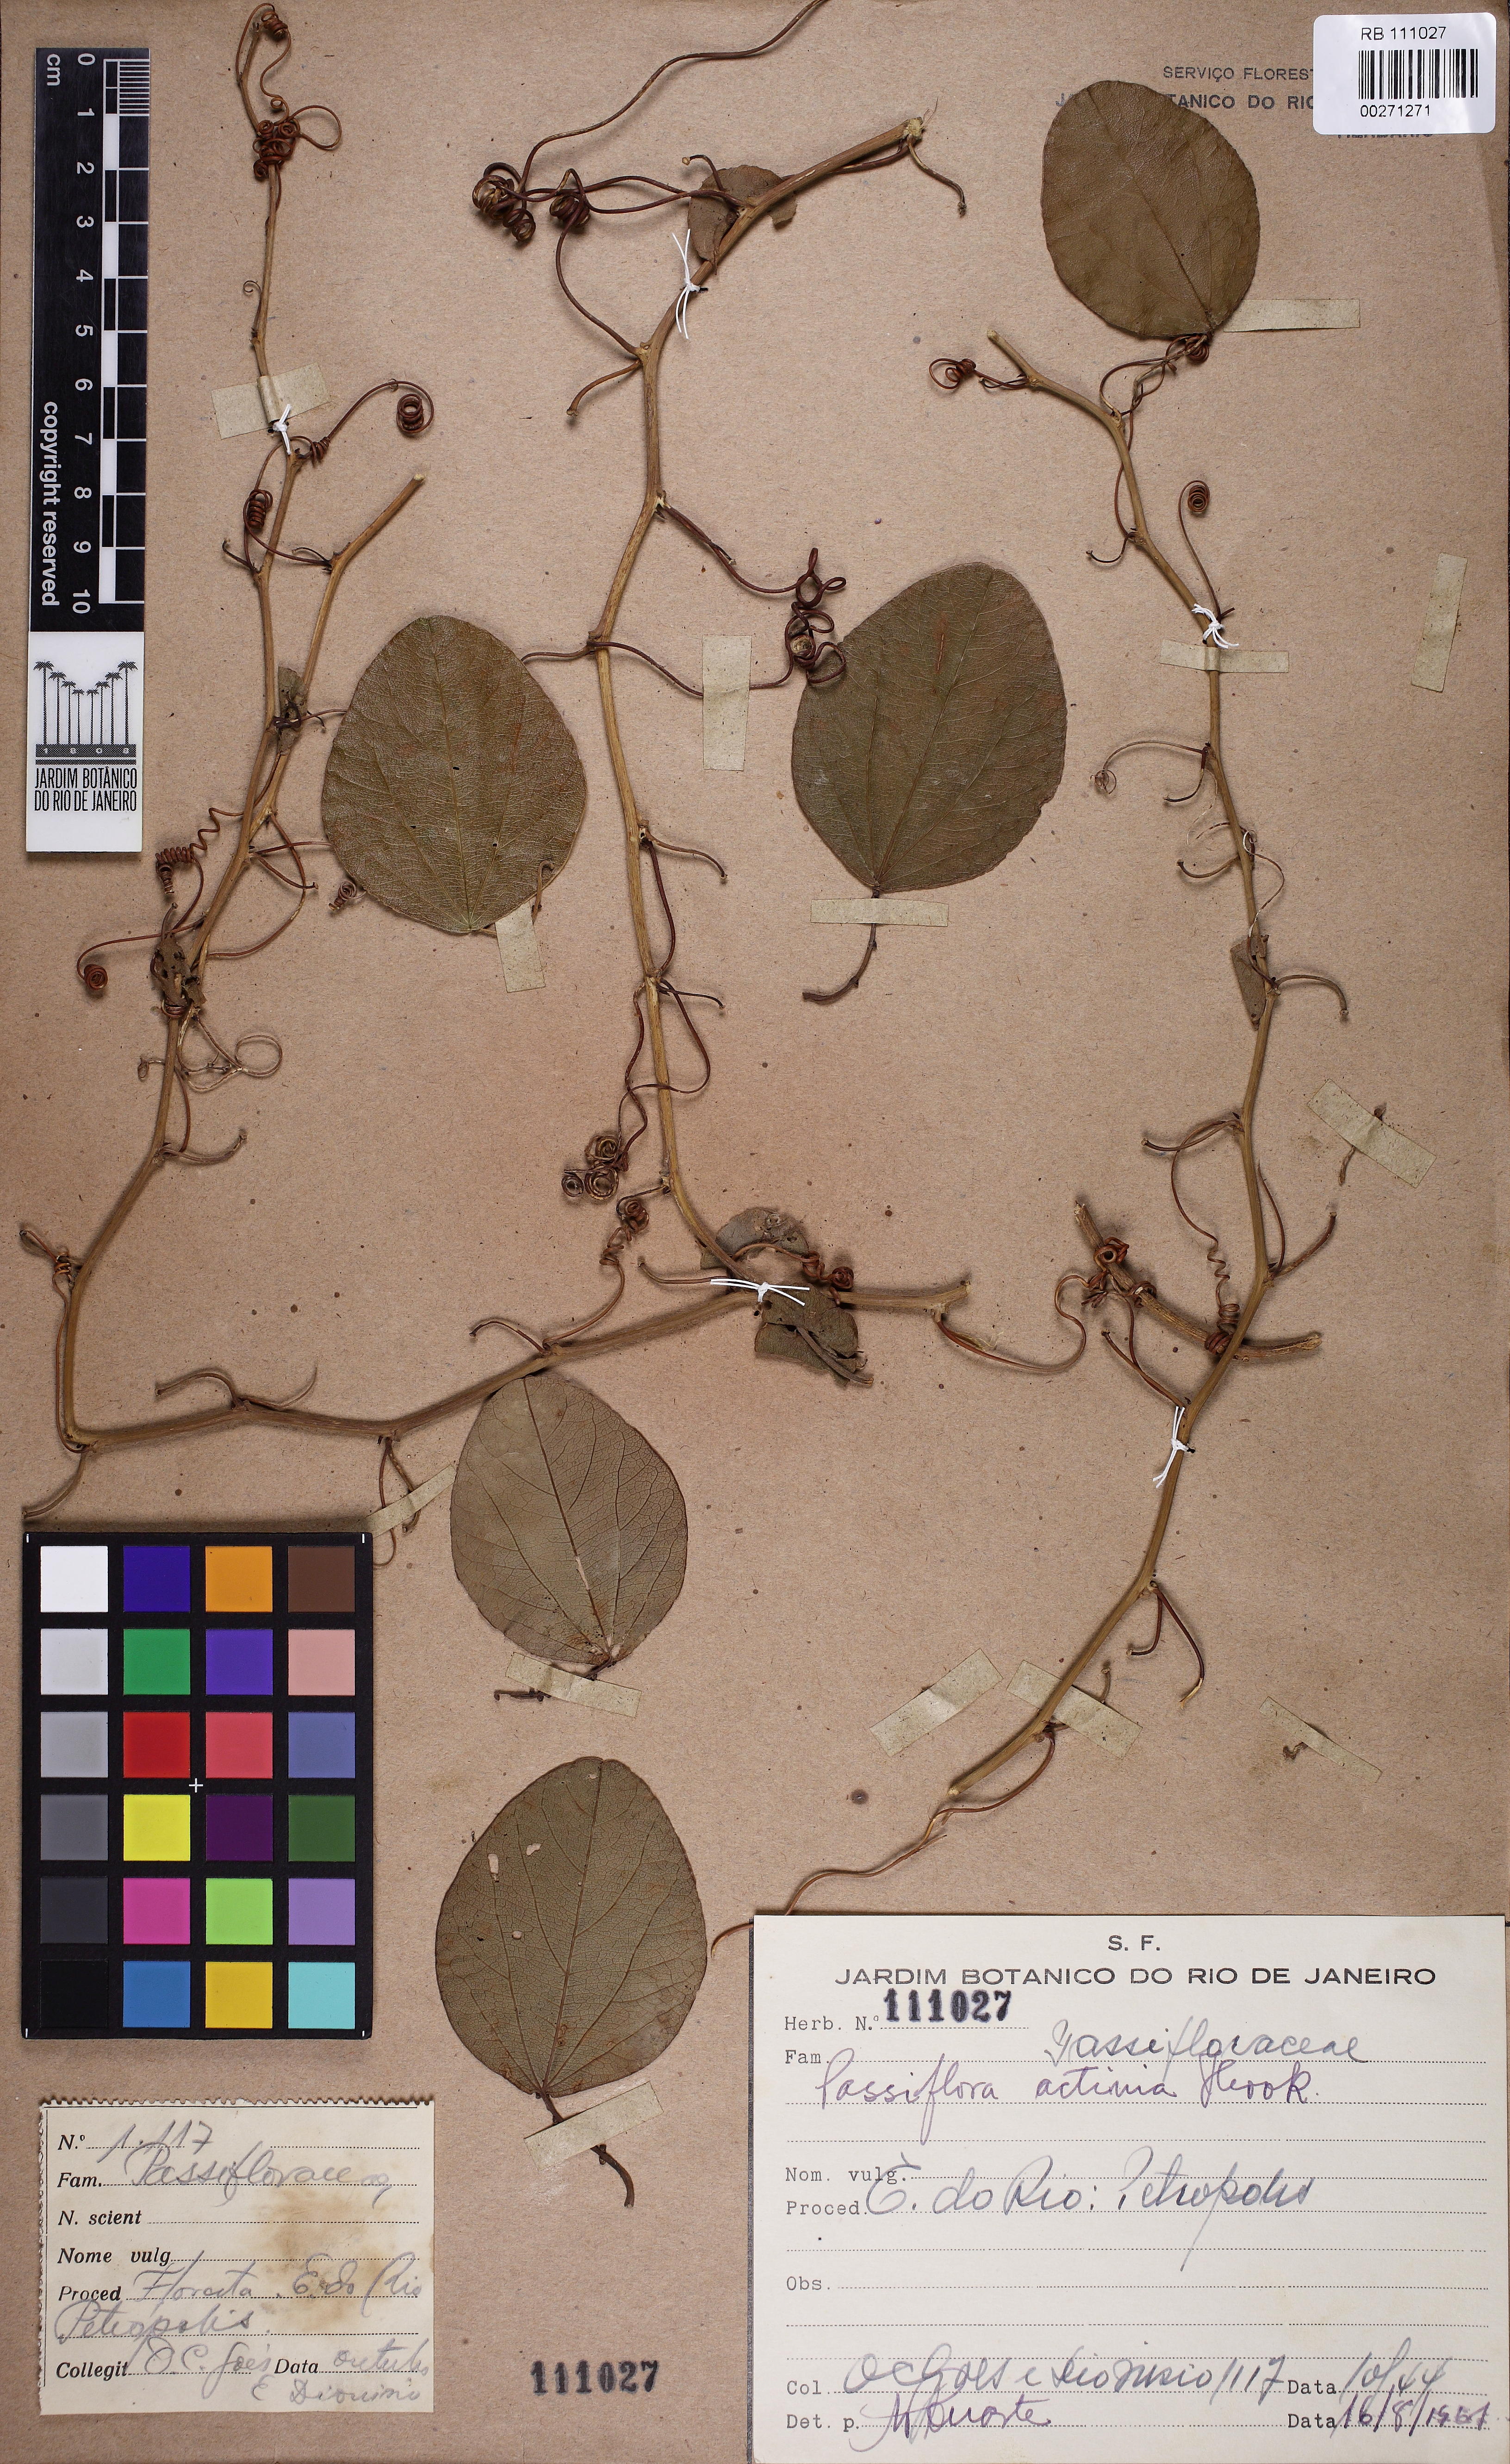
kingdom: Plantae
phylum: Tracheophyta
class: Magnoliopsida
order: Malpighiales
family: Passifloraceae
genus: Passiflora
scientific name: Passiflora actinia
